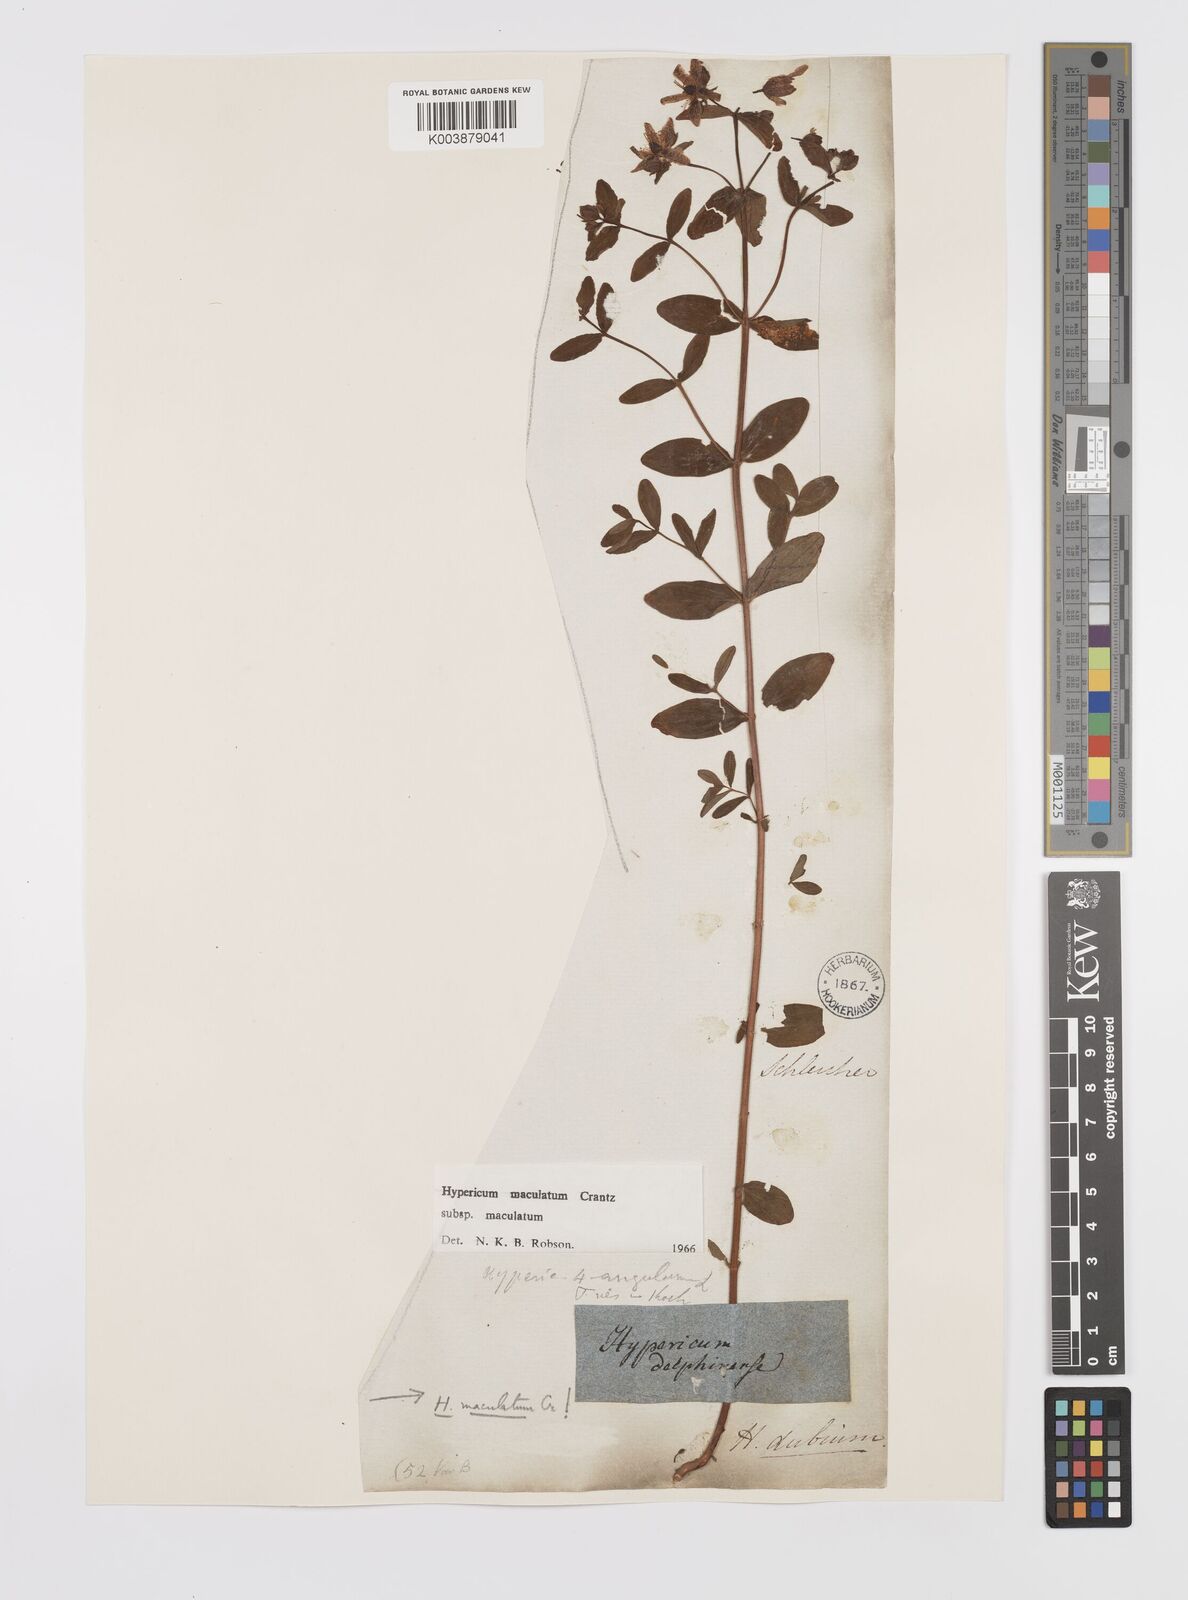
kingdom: Plantae
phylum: Tracheophyta
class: Magnoliopsida
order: Malpighiales
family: Hypericaceae
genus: Hypericum
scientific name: Hypericum maculatum
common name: Imperforate st. john's-wort
